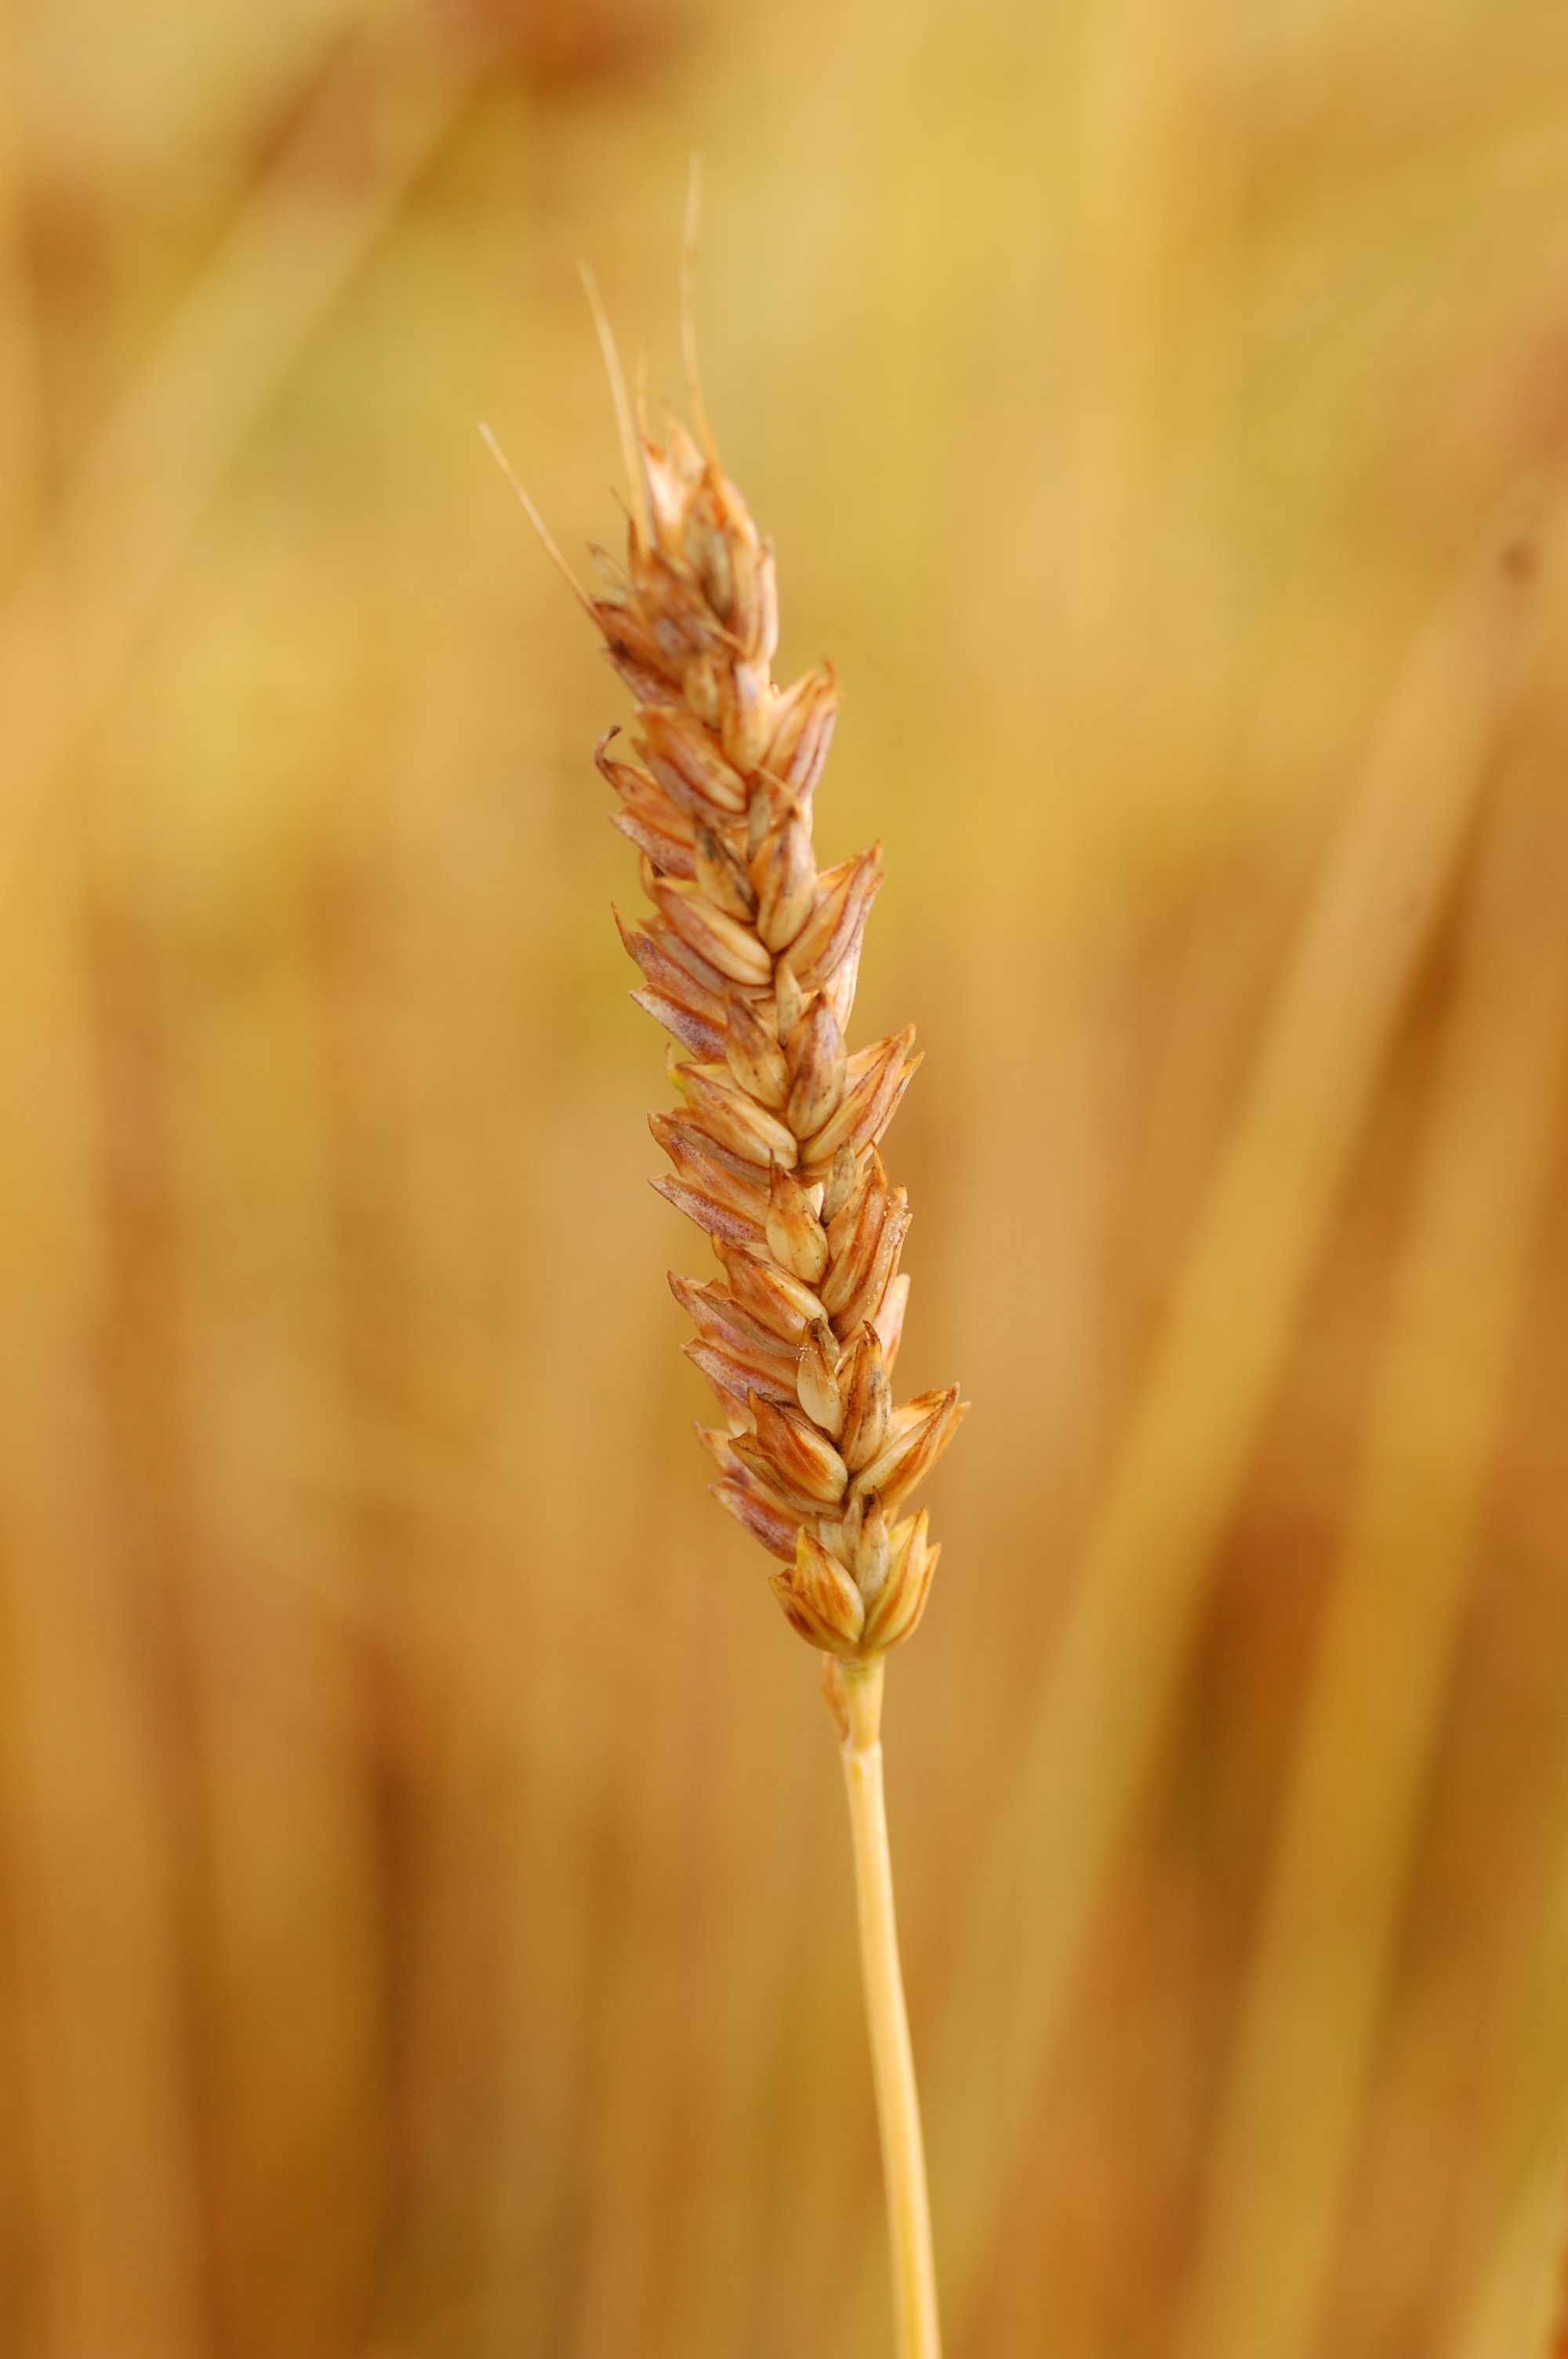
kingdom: Plantae
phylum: Tracheophyta
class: Liliopsida
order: Poales
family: Poaceae
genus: Triticum
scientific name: Triticum aestivum
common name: Common wheat
